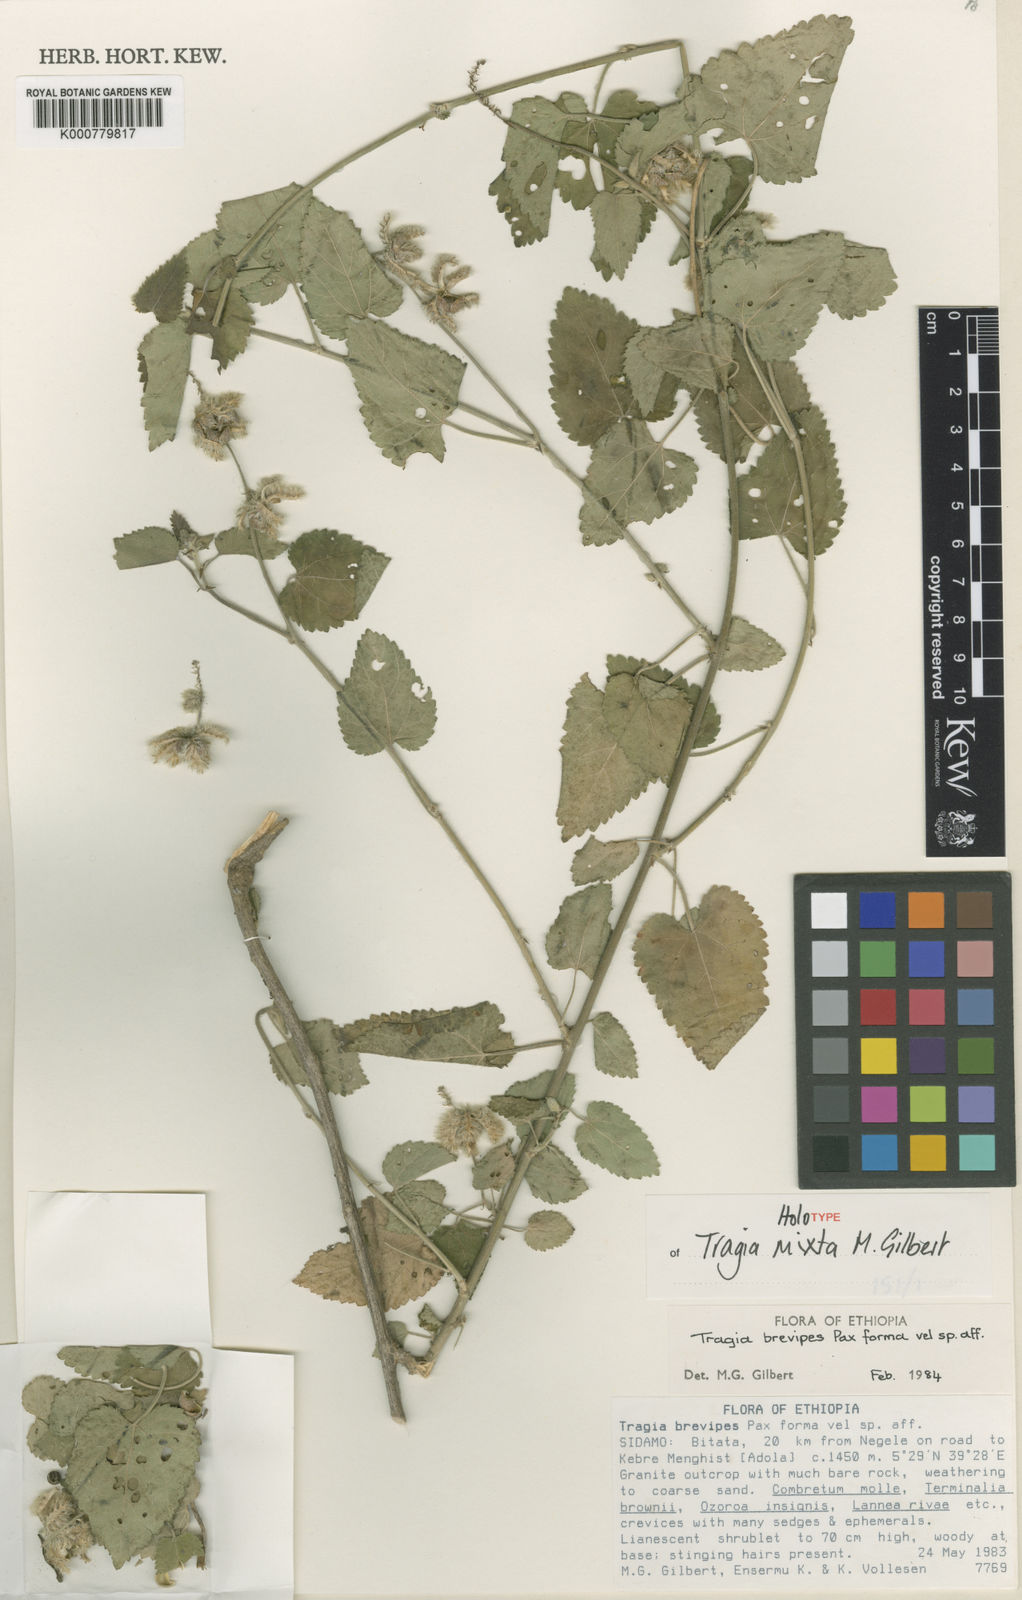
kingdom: Plantae
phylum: Tracheophyta
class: Magnoliopsida
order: Malpighiales
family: Euphorbiaceae
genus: Tragia
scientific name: Tragia mixta
